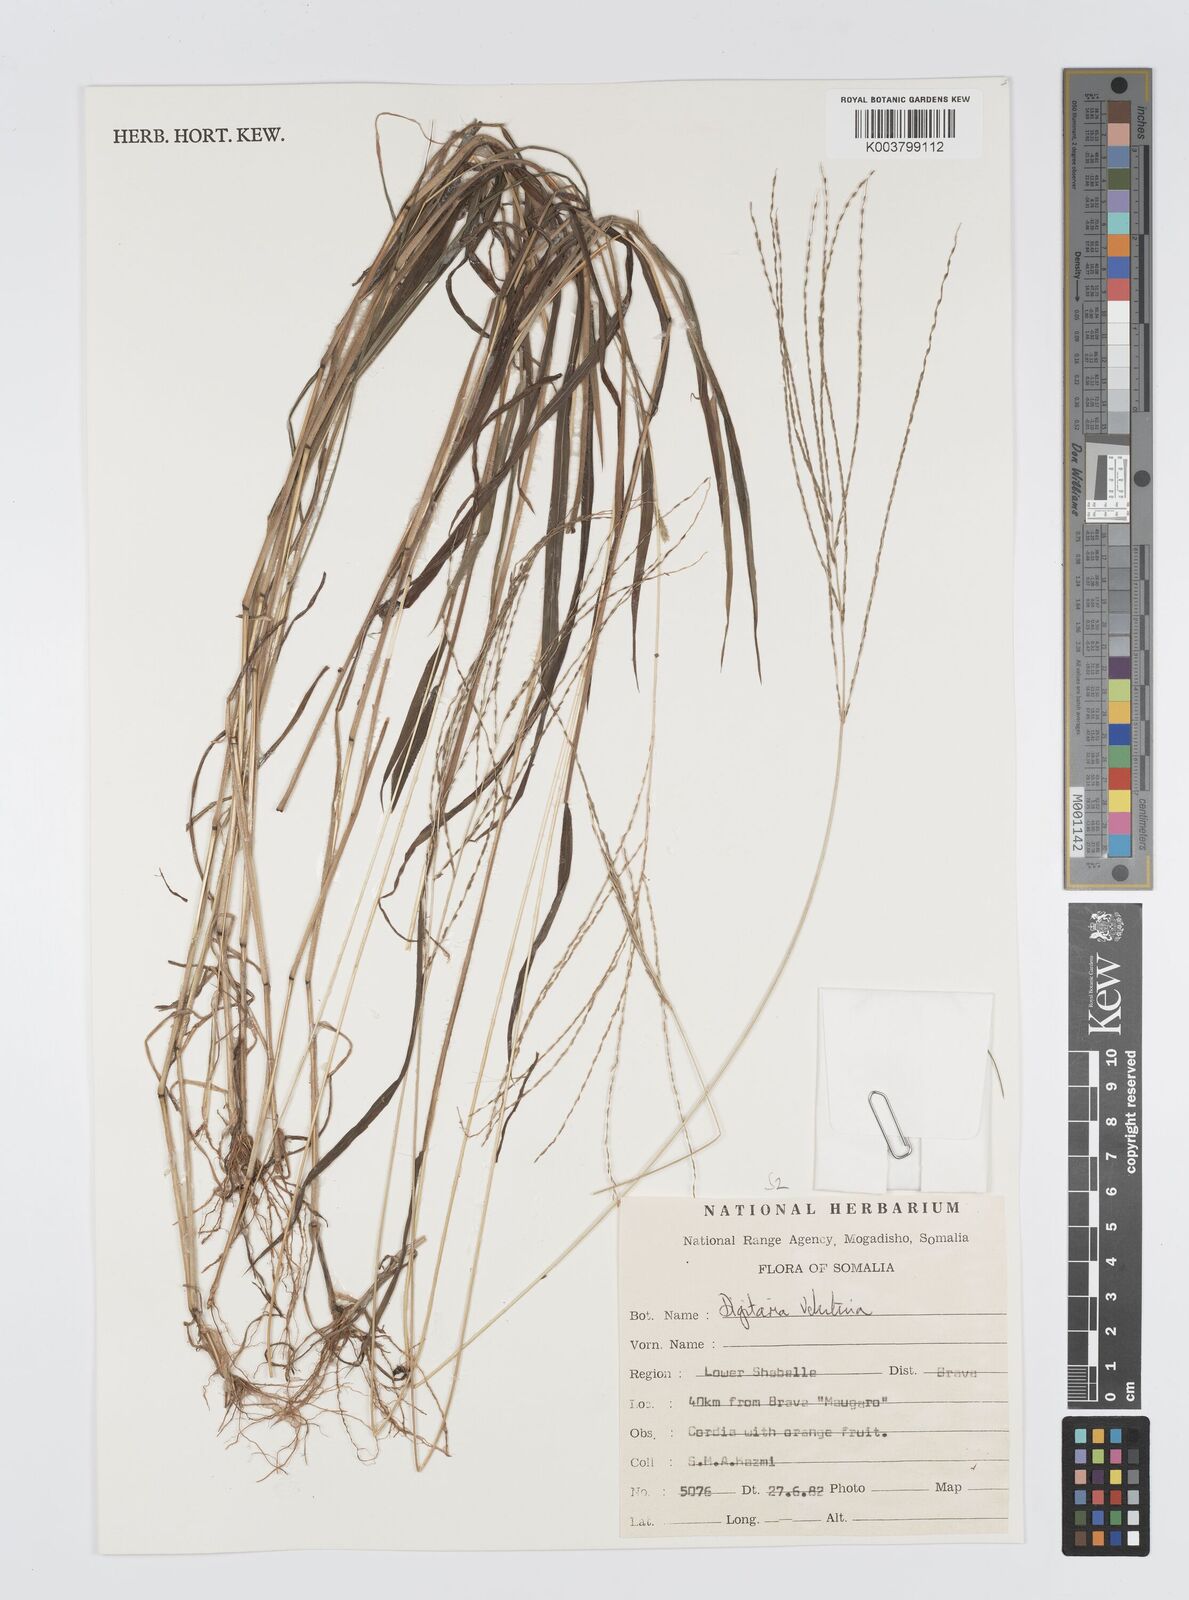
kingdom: Plantae
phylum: Tracheophyta
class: Liliopsida
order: Poales
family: Poaceae
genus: Digitaria
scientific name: Digitaria velutina
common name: Long-plume finger grass
